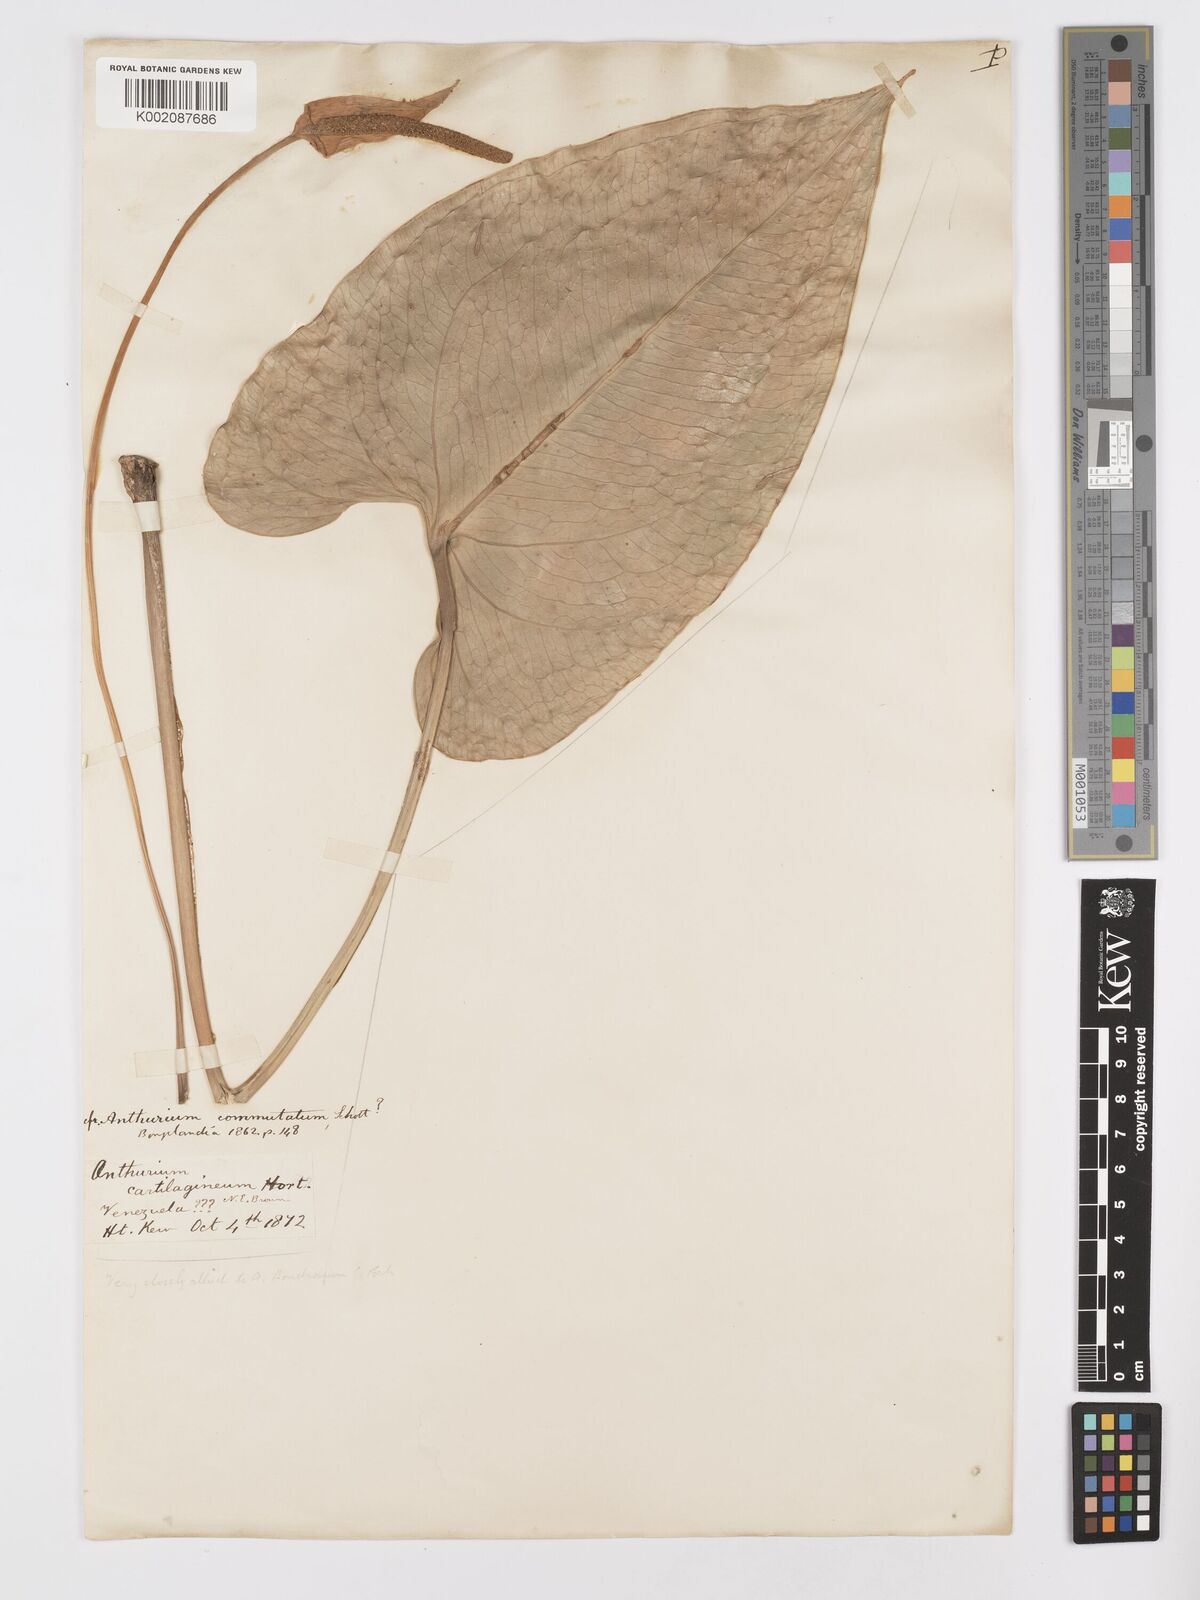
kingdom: Plantae
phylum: Tracheophyta
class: Liliopsida
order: Alismatales
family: Araceae
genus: Anthurium
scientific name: Anthurium cordatum
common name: Monkey tail
